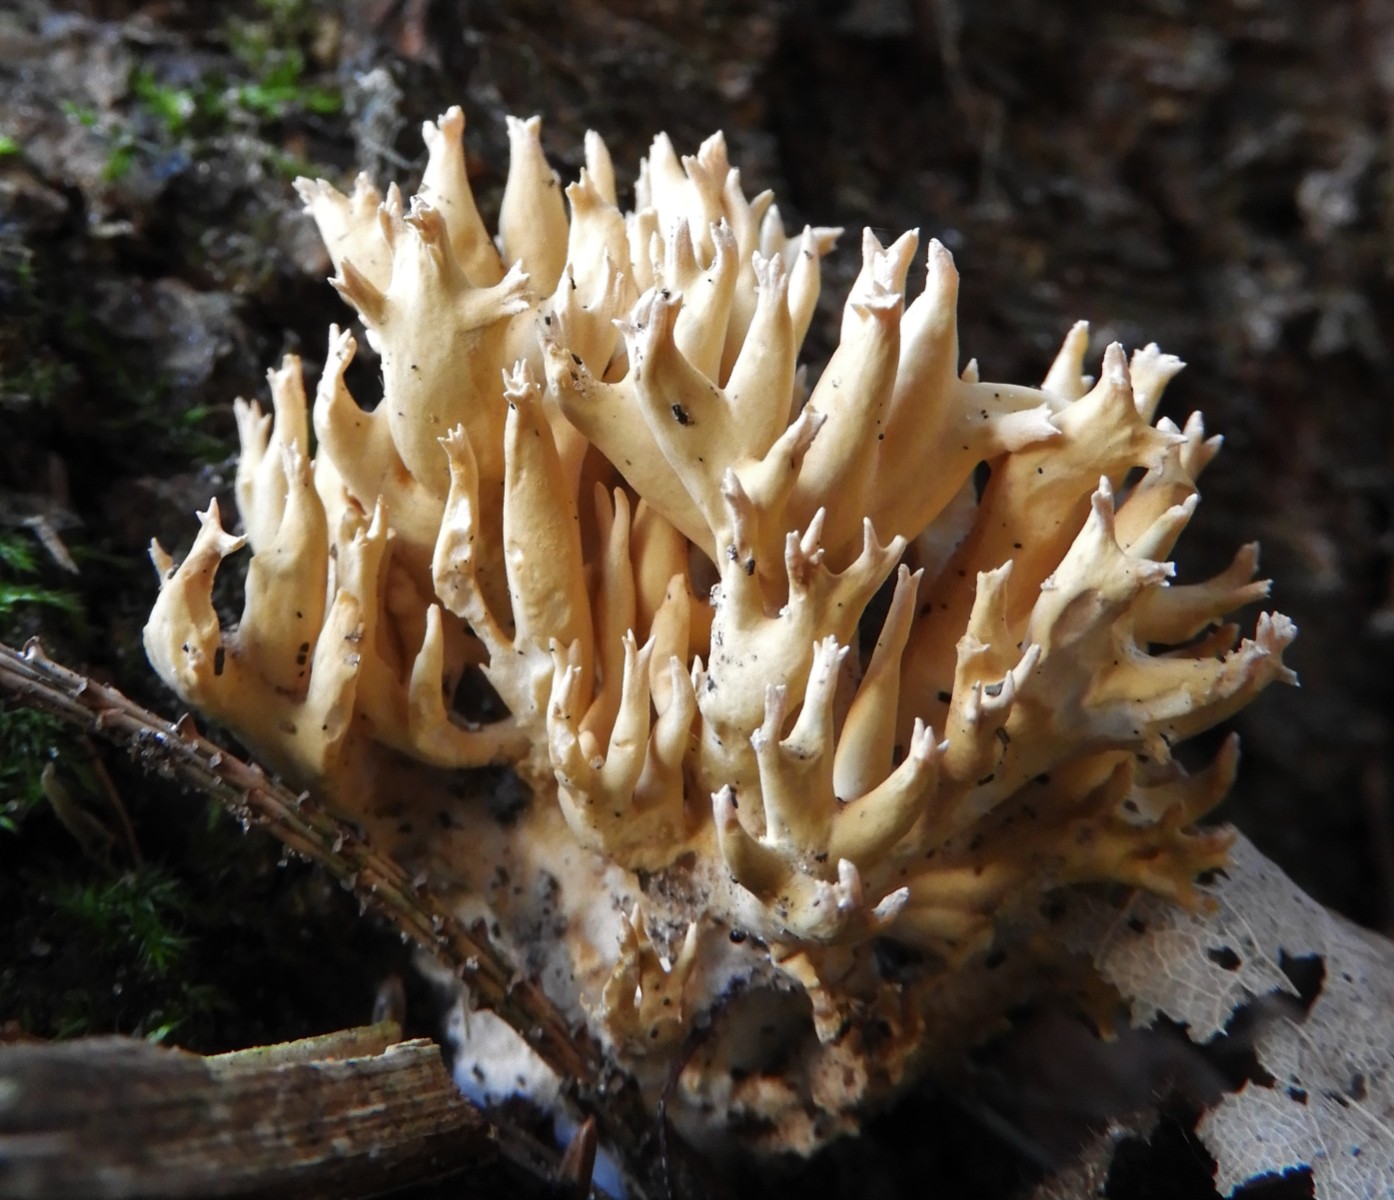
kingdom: Fungi
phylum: Basidiomycota
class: Agaricomycetes
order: Gomphales
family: Gomphaceae
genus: Phaeoclavulina
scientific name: Phaeoclavulina eumorpha
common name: gran-koralsvamp
